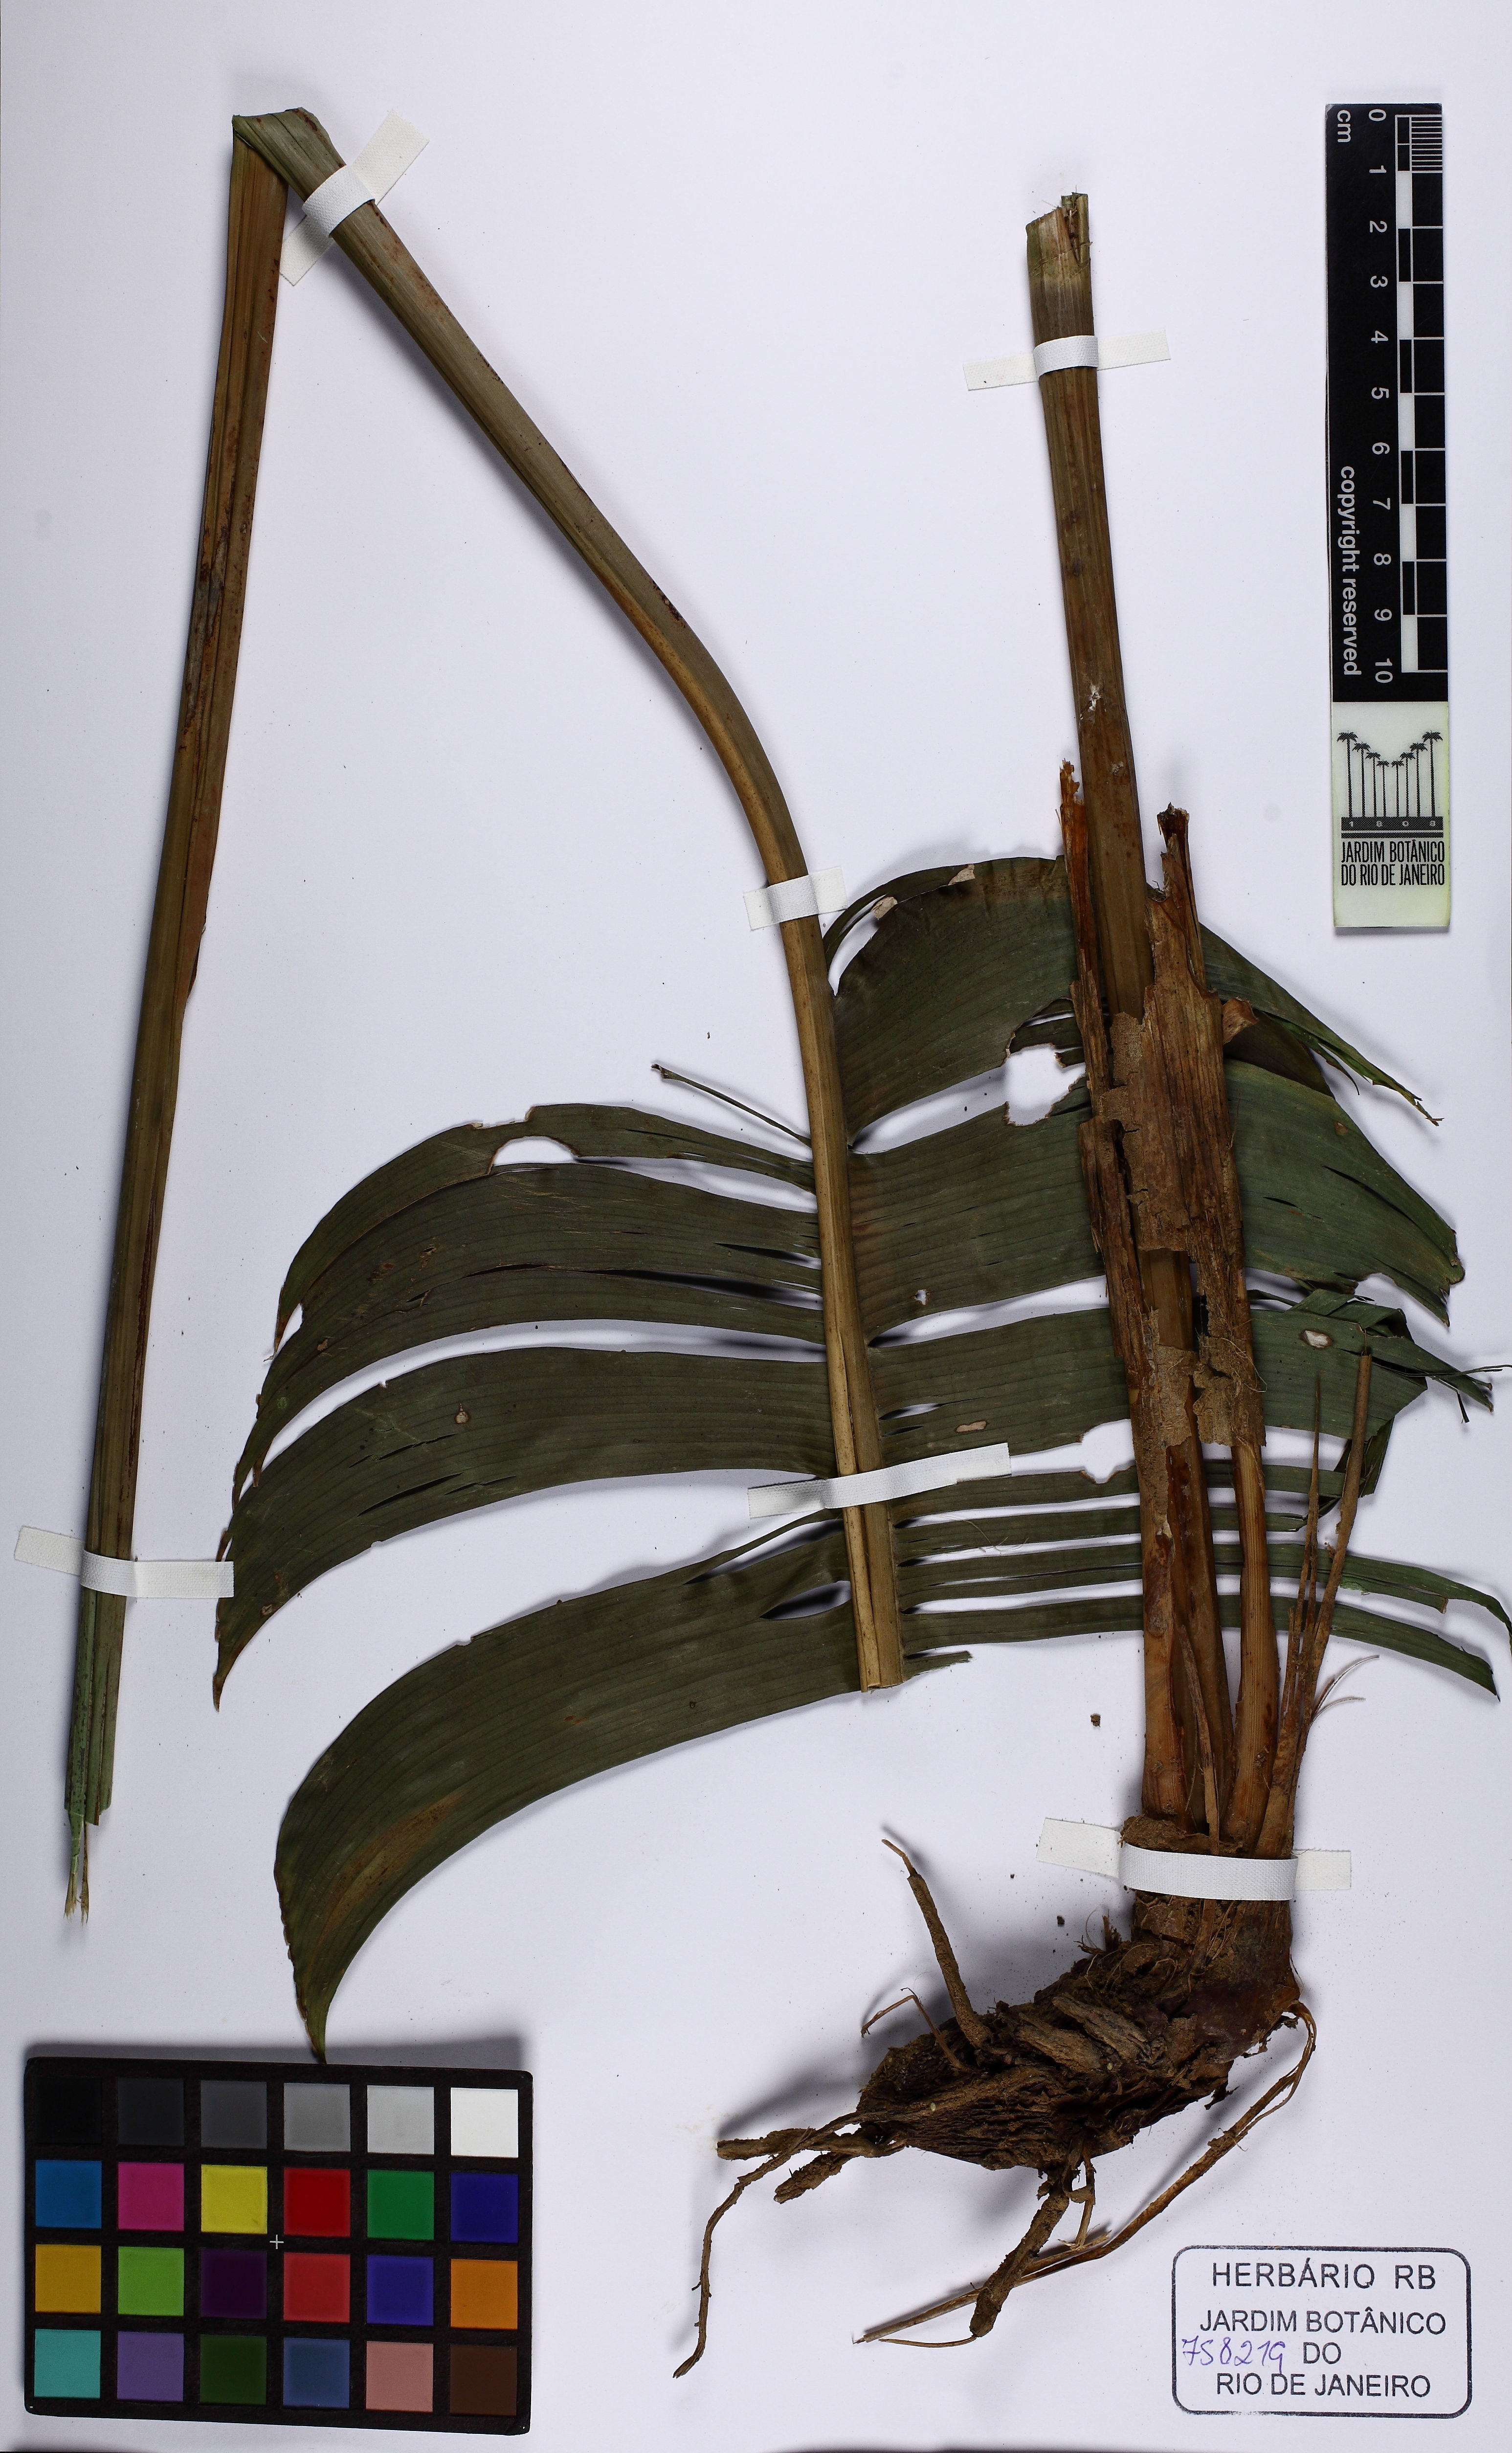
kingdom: Plantae
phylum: Tracheophyta
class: Liliopsida
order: Zingiberales
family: Heliconiaceae
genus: Heliconia
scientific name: Heliconia chartacea
